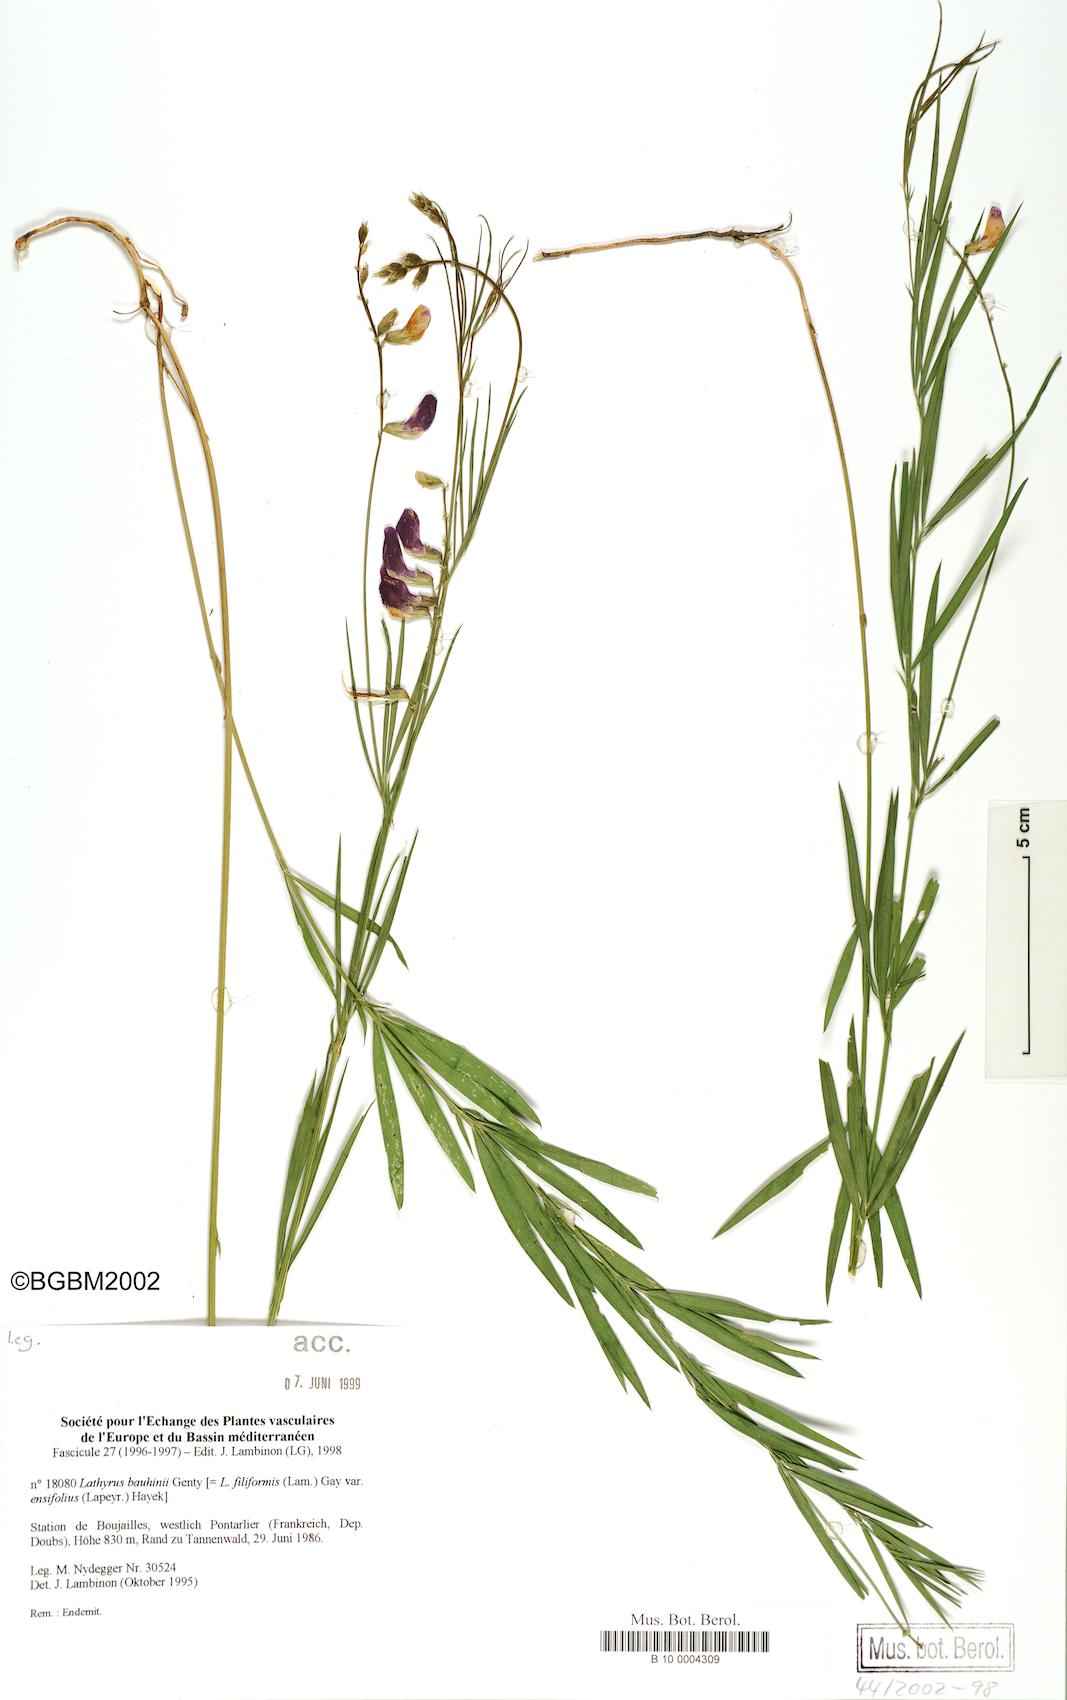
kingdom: Plantae
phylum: Tracheophyta
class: Magnoliopsida
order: Fabales
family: Fabaceae
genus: Lathyrus
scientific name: Lathyrus bauhini
